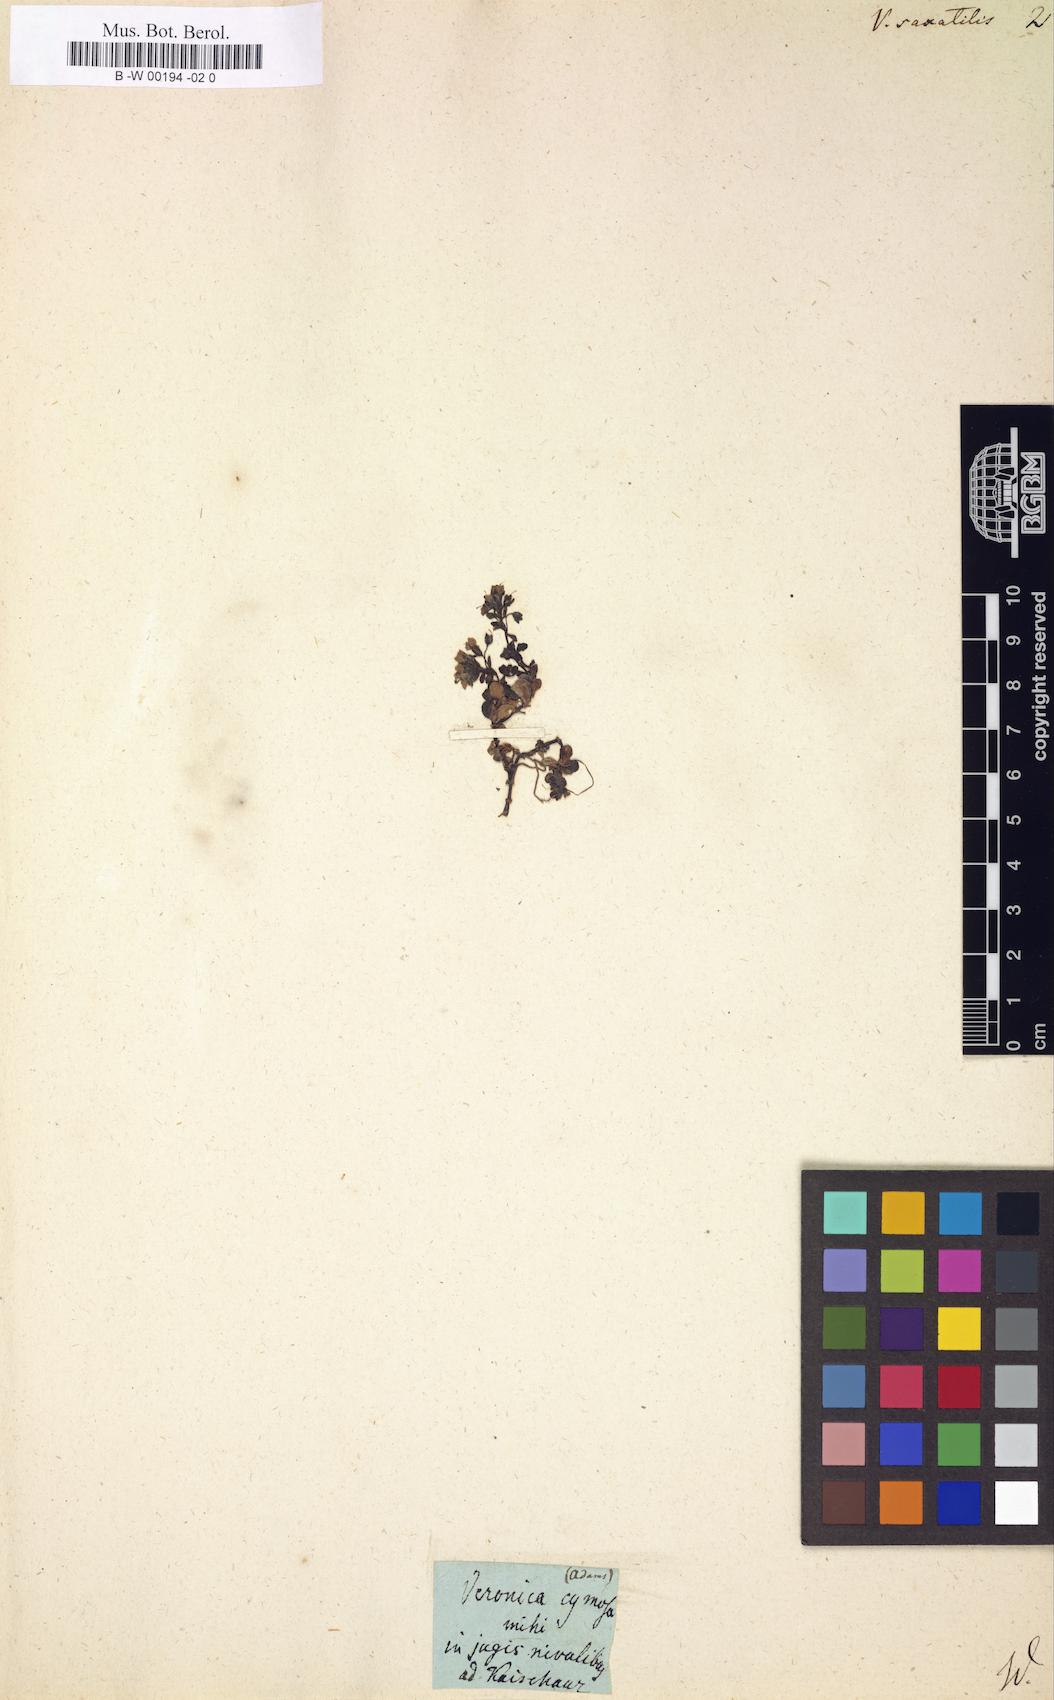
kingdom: Plantae
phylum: Tracheophyta
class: Magnoliopsida
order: Lamiales
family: Plantaginaceae
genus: Veronica
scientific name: Veronica fruticans
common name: Rock speedwell
